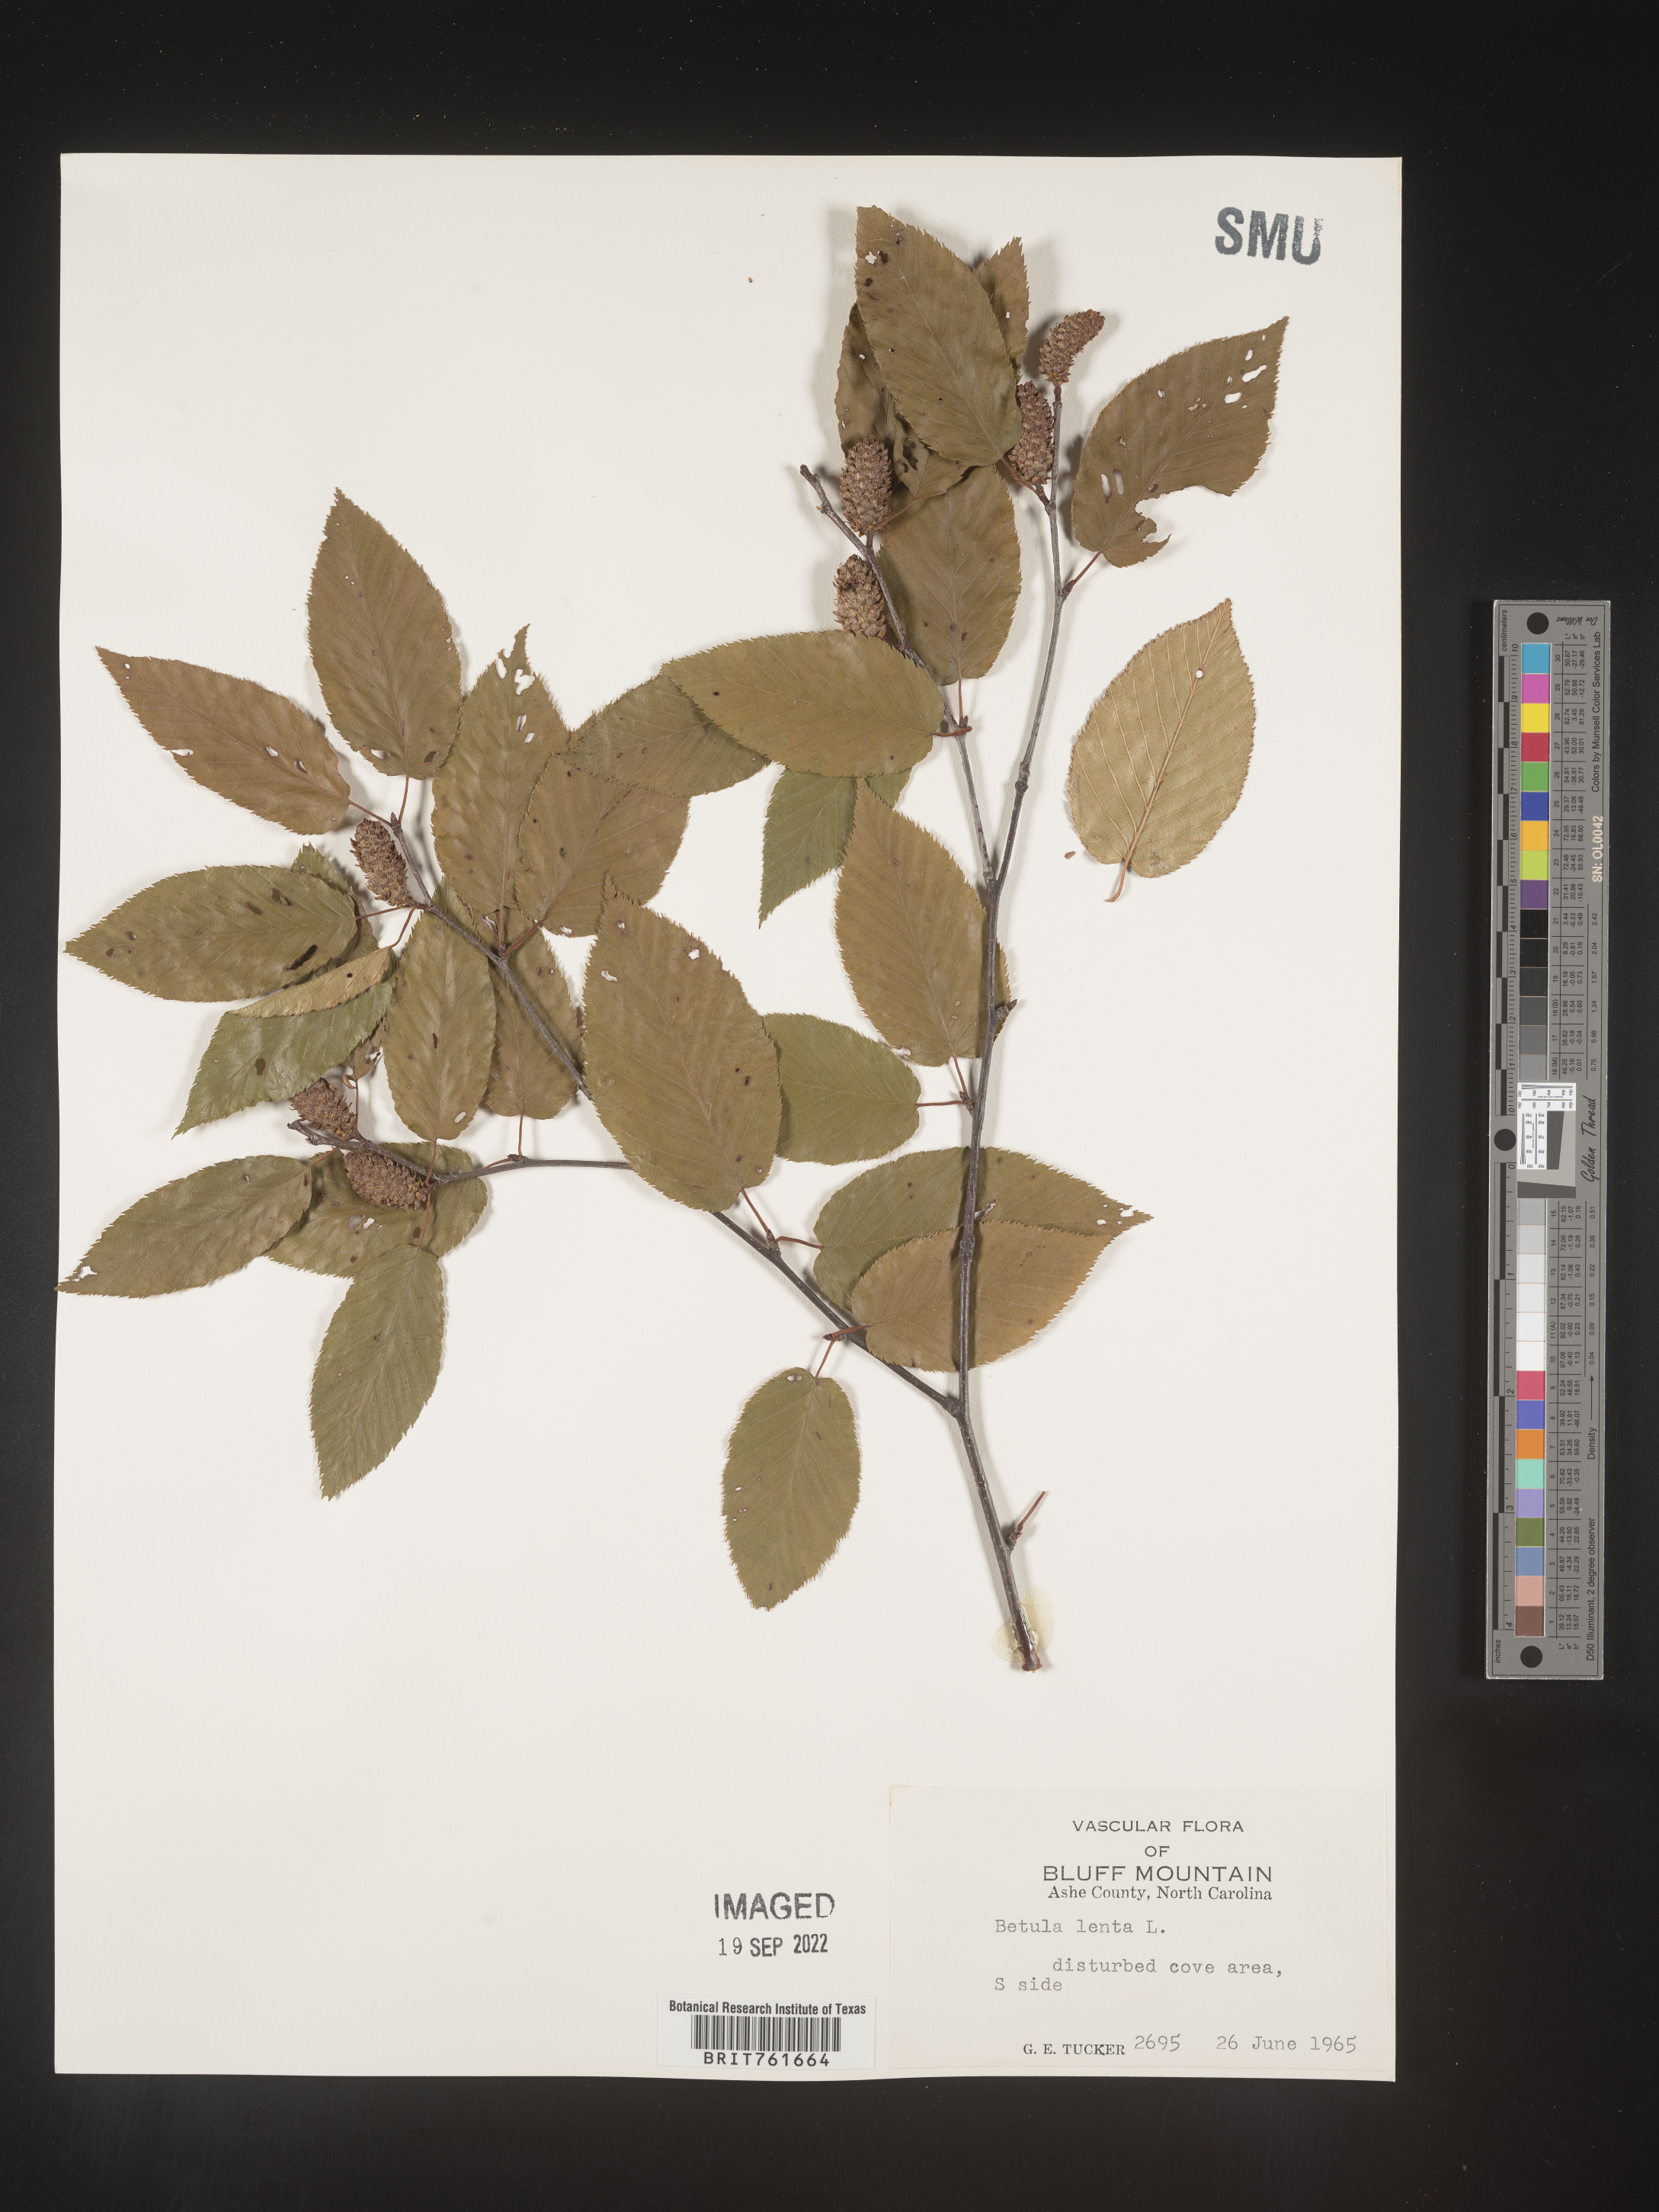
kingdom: Plantae
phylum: Tracheophyta
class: Magnoliopsida
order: Fagales
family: Betulaceae
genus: Betula
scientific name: Betula lenta
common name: Black birch
